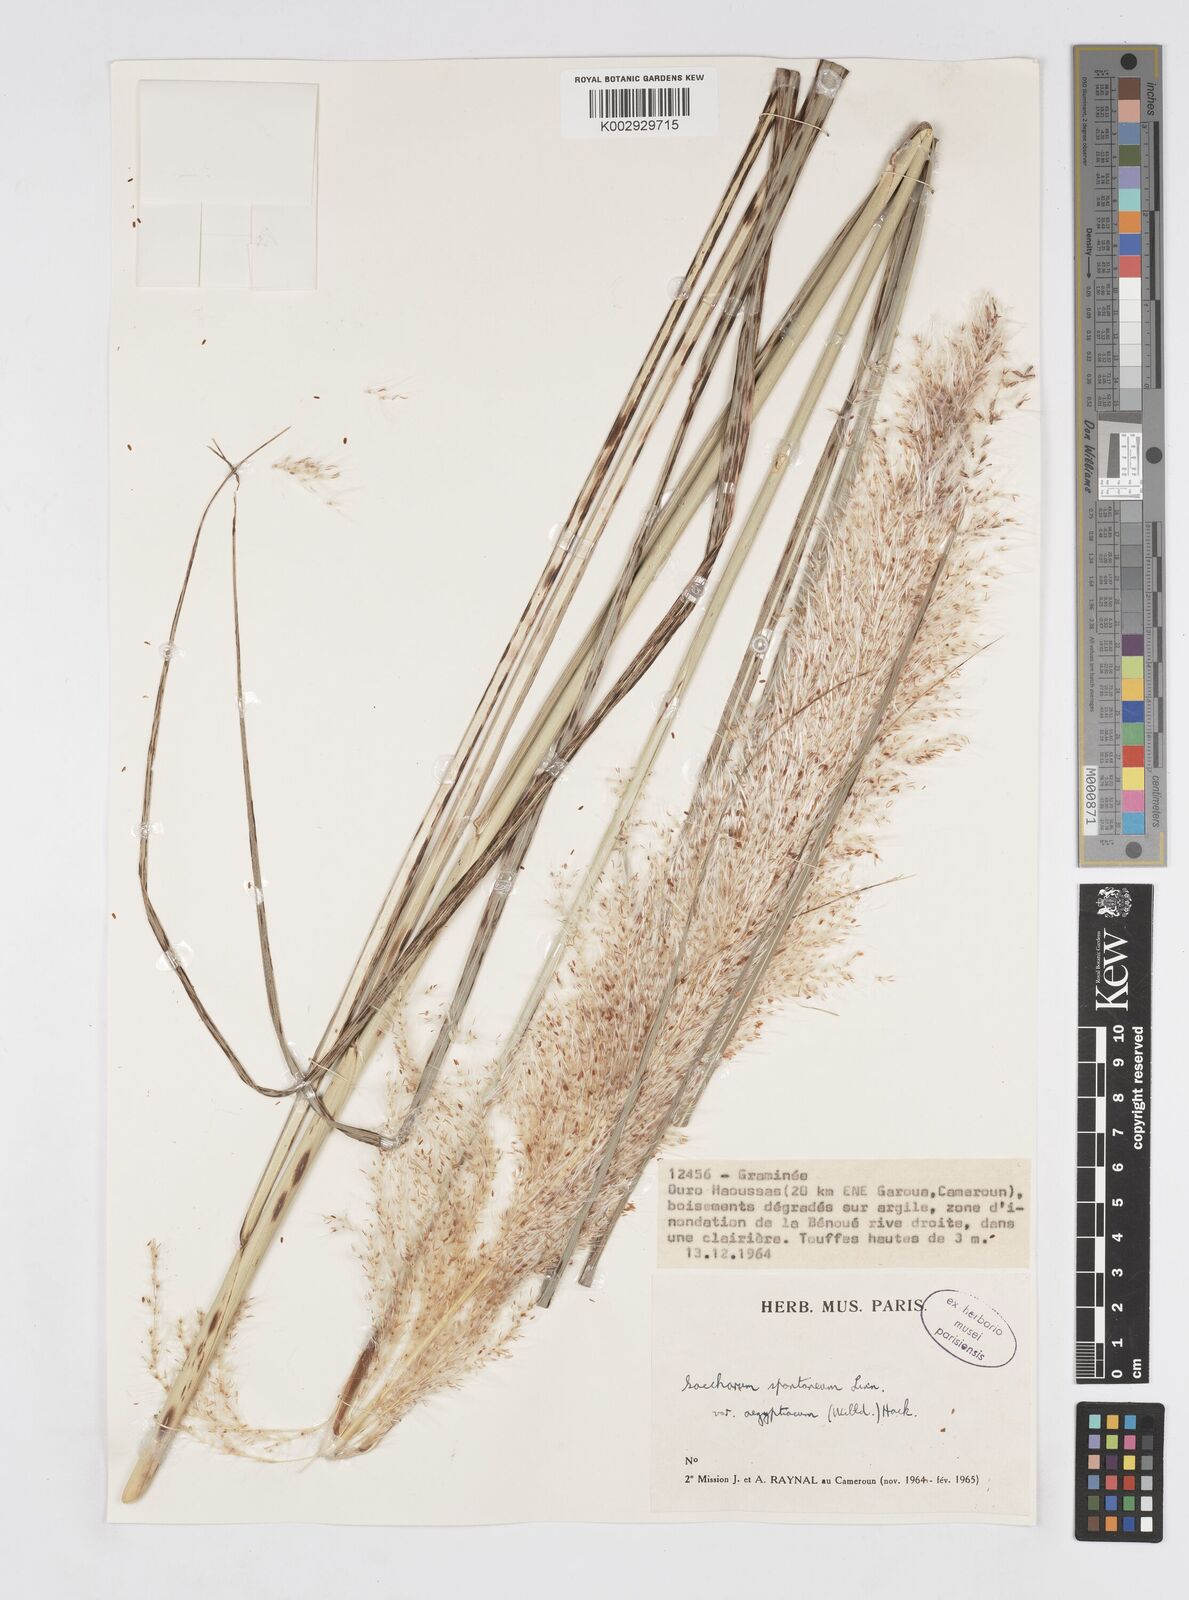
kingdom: Plantae
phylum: Tracheophyta
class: Liliopsida
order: Poales
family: Poaceae
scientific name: Poaceae
